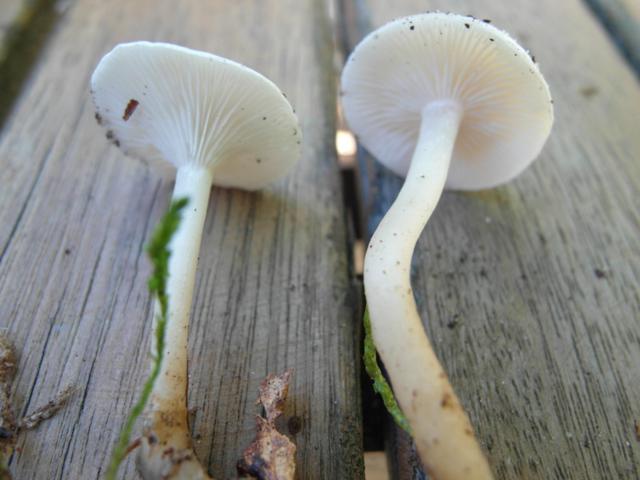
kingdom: Fungi
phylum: Basidiomycota
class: Agaricomycetes
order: Agaricales
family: Tricholomataceae
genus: Leucocybe
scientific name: Leucocybe candicans
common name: kridt-tragthat
